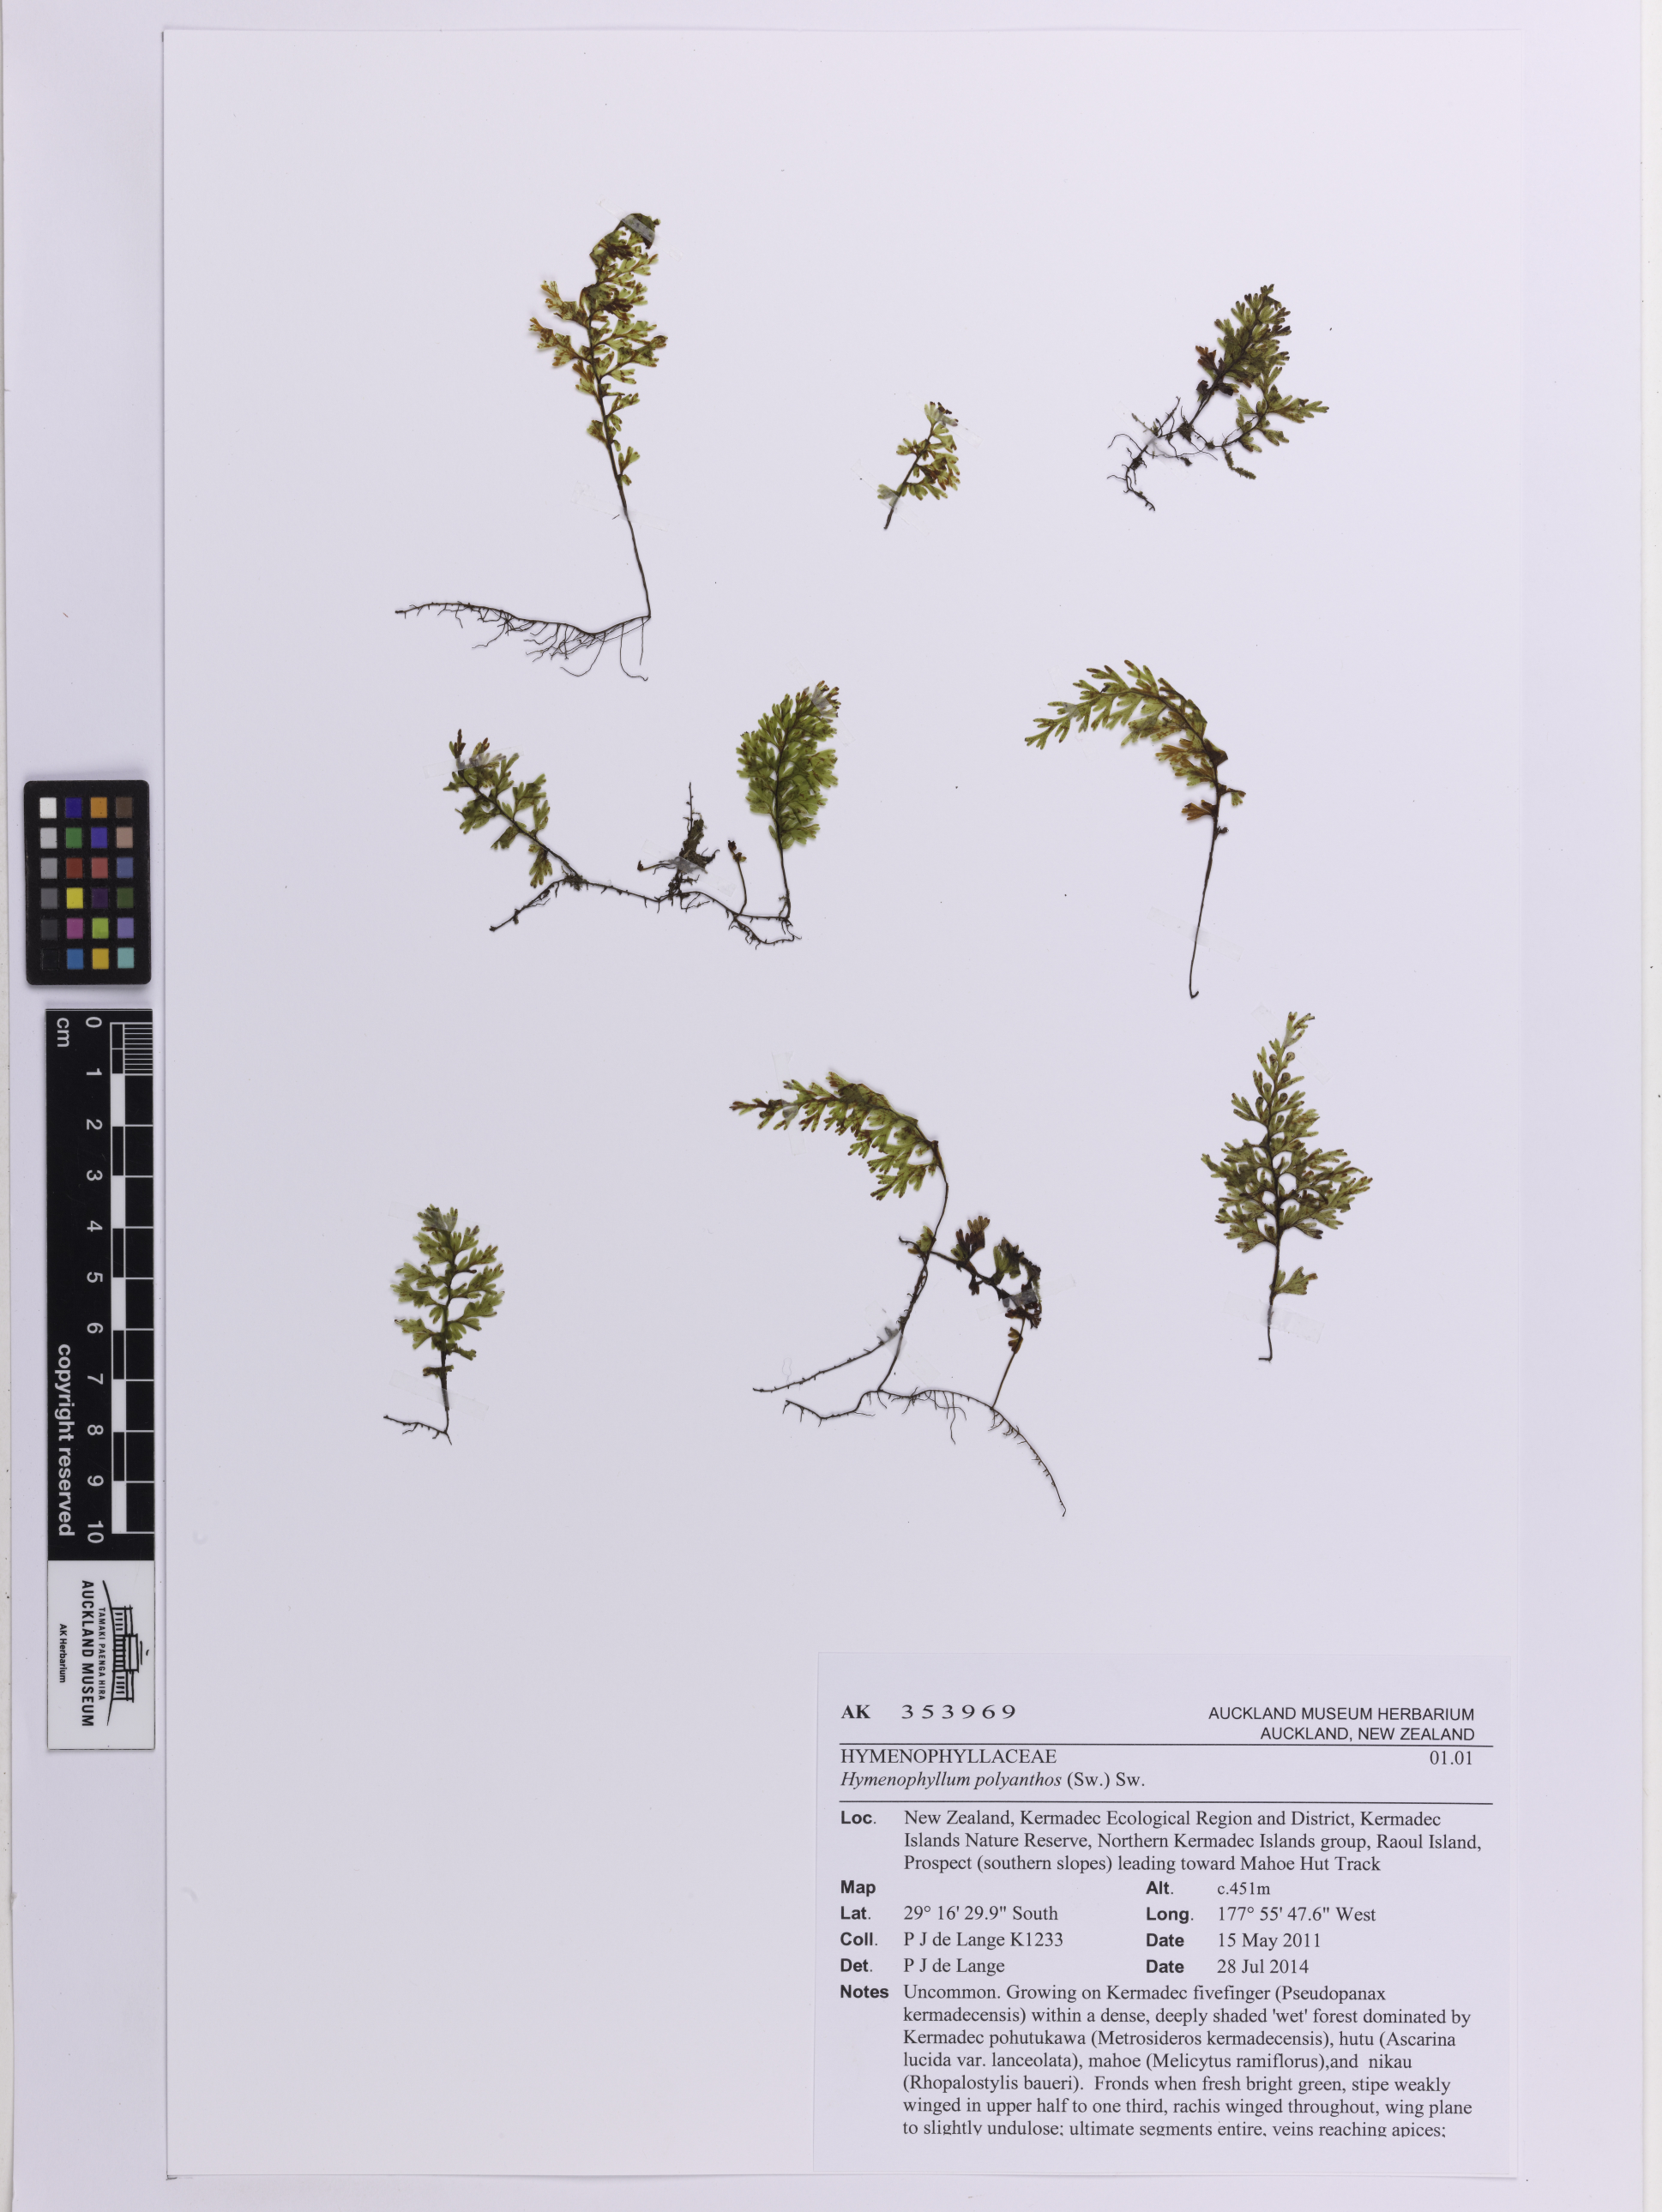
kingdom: Plantae
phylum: Tracheophyta
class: Polypodiopsida
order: Hymenophyllales
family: Hymenophyllaceae
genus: Hymenophyllum
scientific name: Hymenophyllum polyanthos
